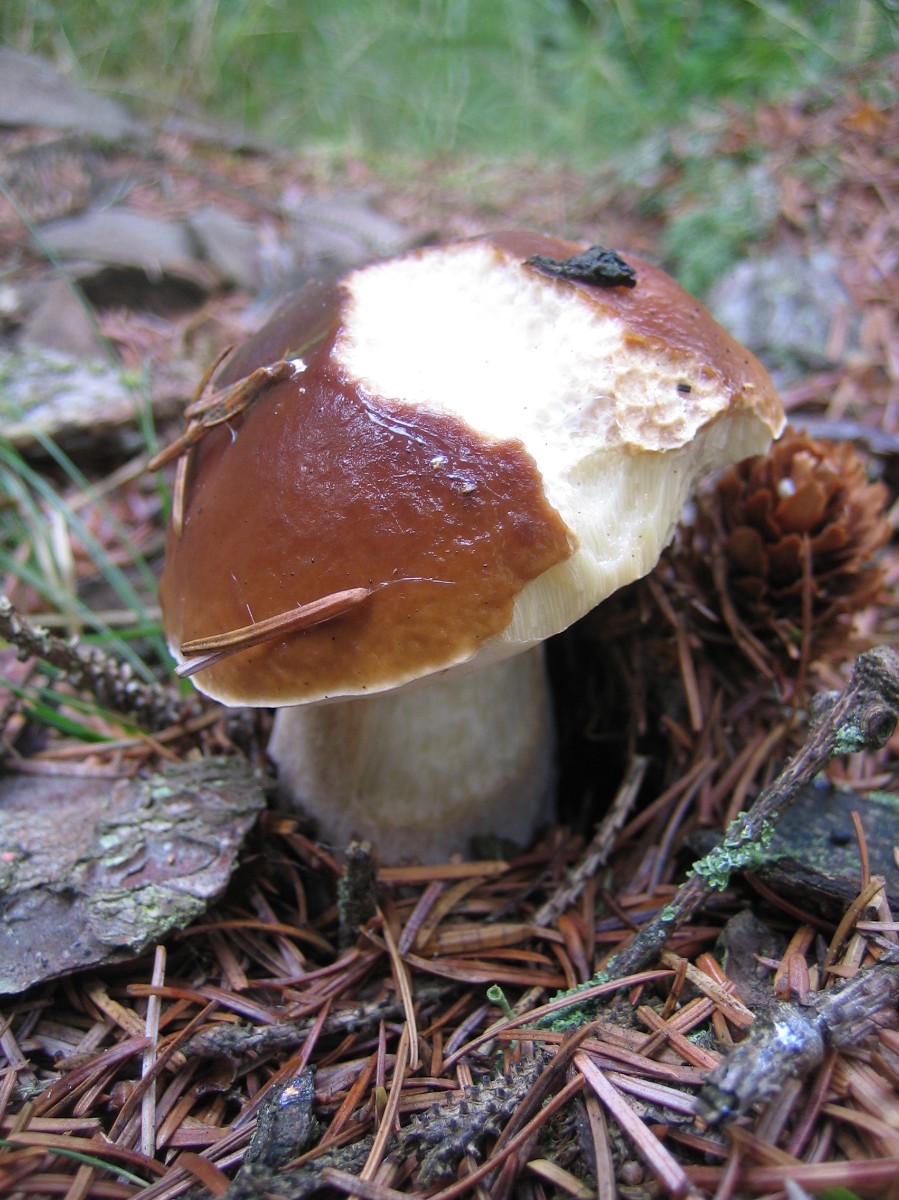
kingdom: Fungi
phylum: Basidiomycota
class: Agaricomycetes
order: Boletales
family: Boletaceae
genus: Boletus
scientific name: Boletus edulis
